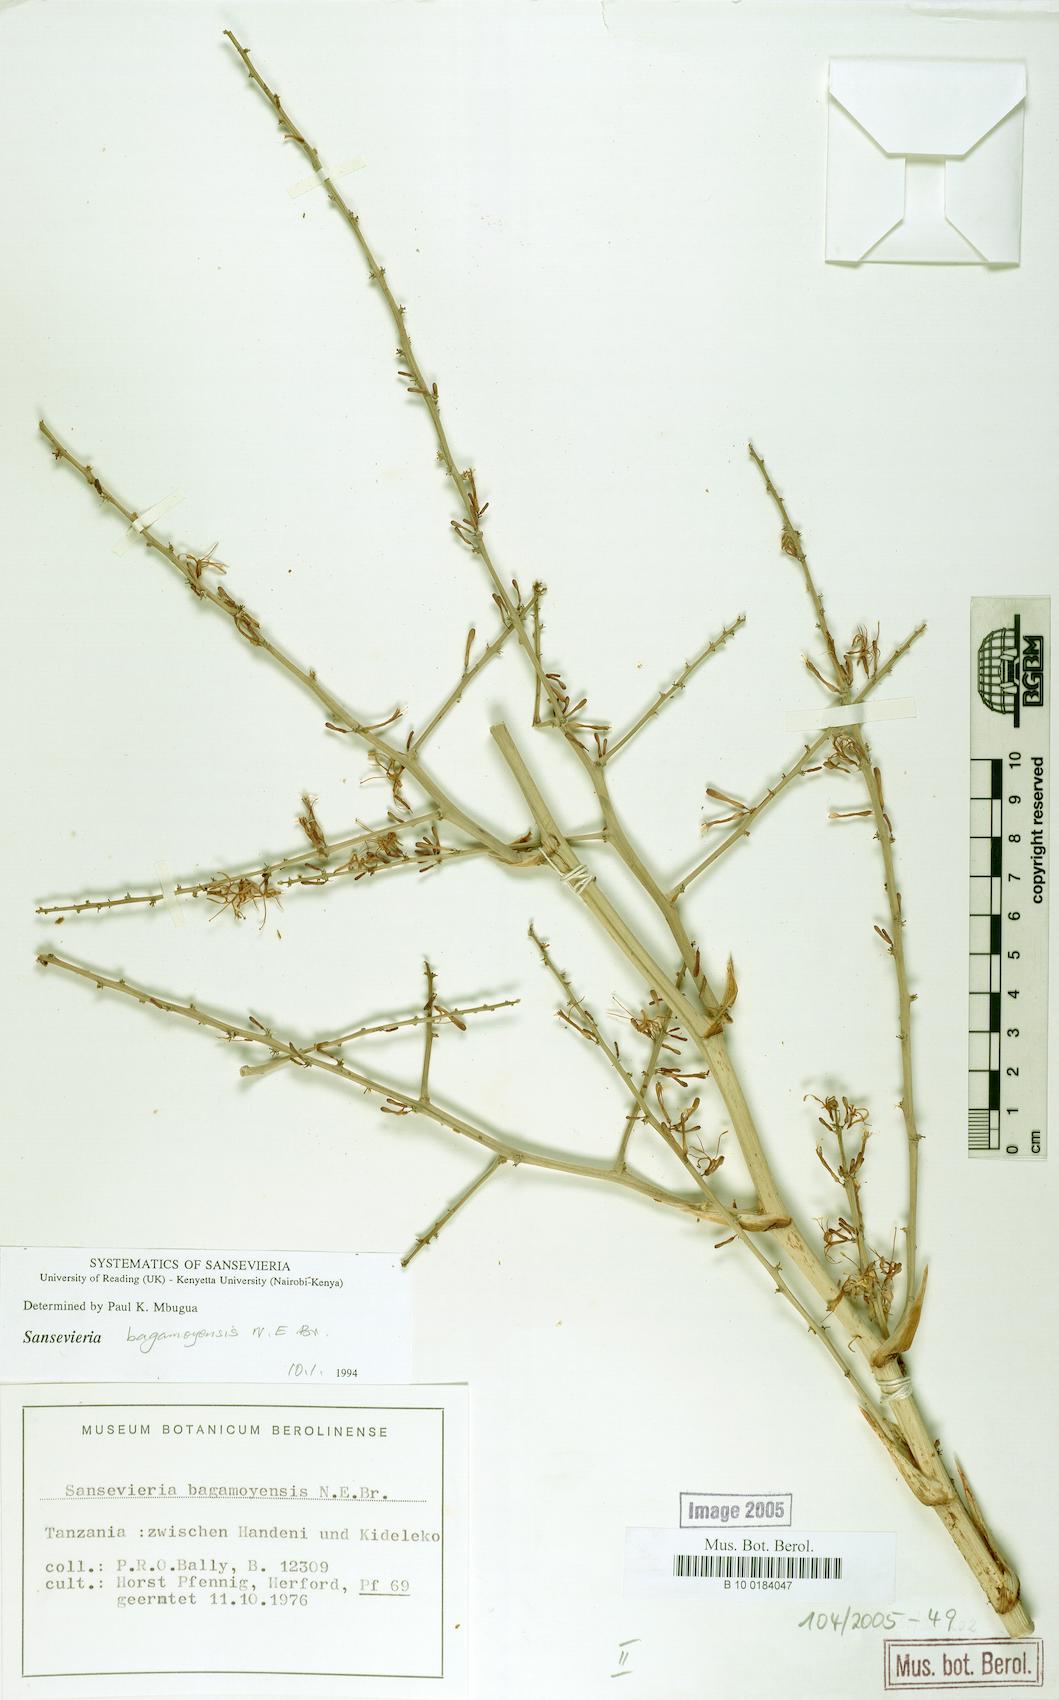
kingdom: Plantae
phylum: Tracheophyta
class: Liliopsida
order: Asparagales
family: Asparagaceae
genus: Dracaena
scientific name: Dracaena bagamoyensis
